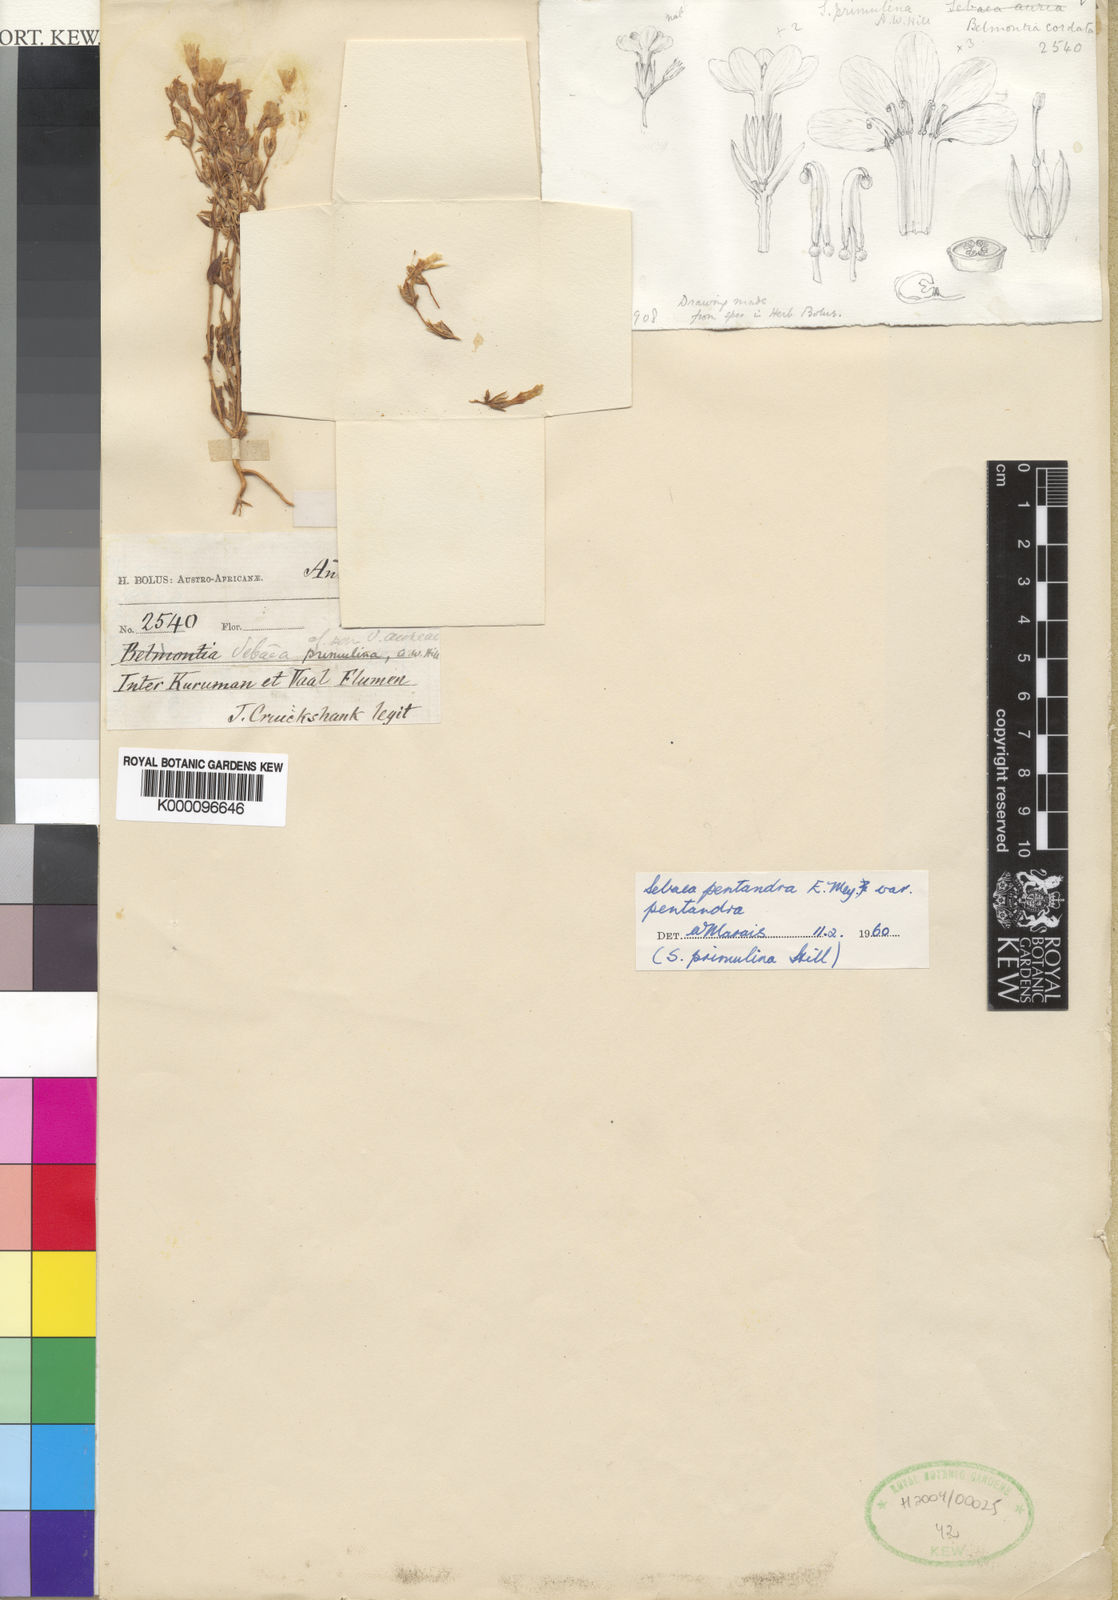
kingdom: Plantae
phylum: Tracheophyta
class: Magnoliopsida
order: Gentianales
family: Gentianaceae
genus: Sebaea
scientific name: Sebaea pentandra
